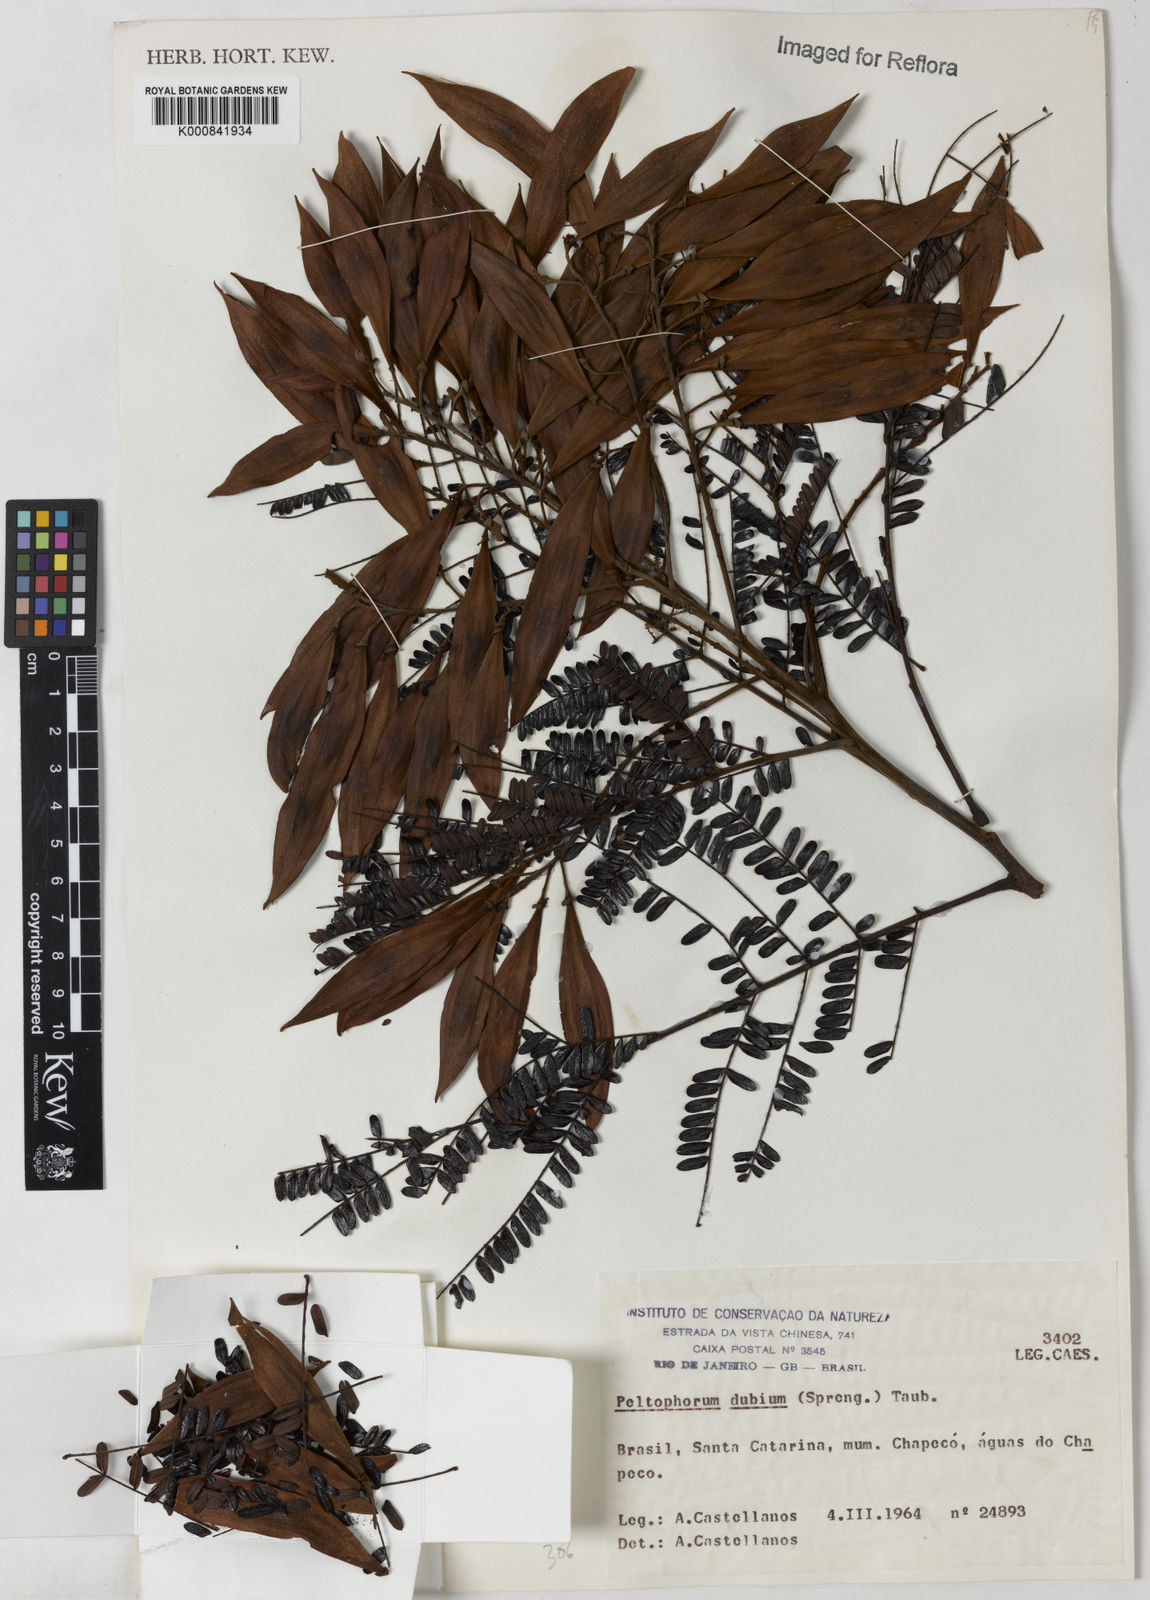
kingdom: Plantae
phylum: Tracheophyta
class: Magnoliopsida
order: Fabales
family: Fabaceae
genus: Peltophorum
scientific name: Peltophorum dubium
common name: Horsebush
